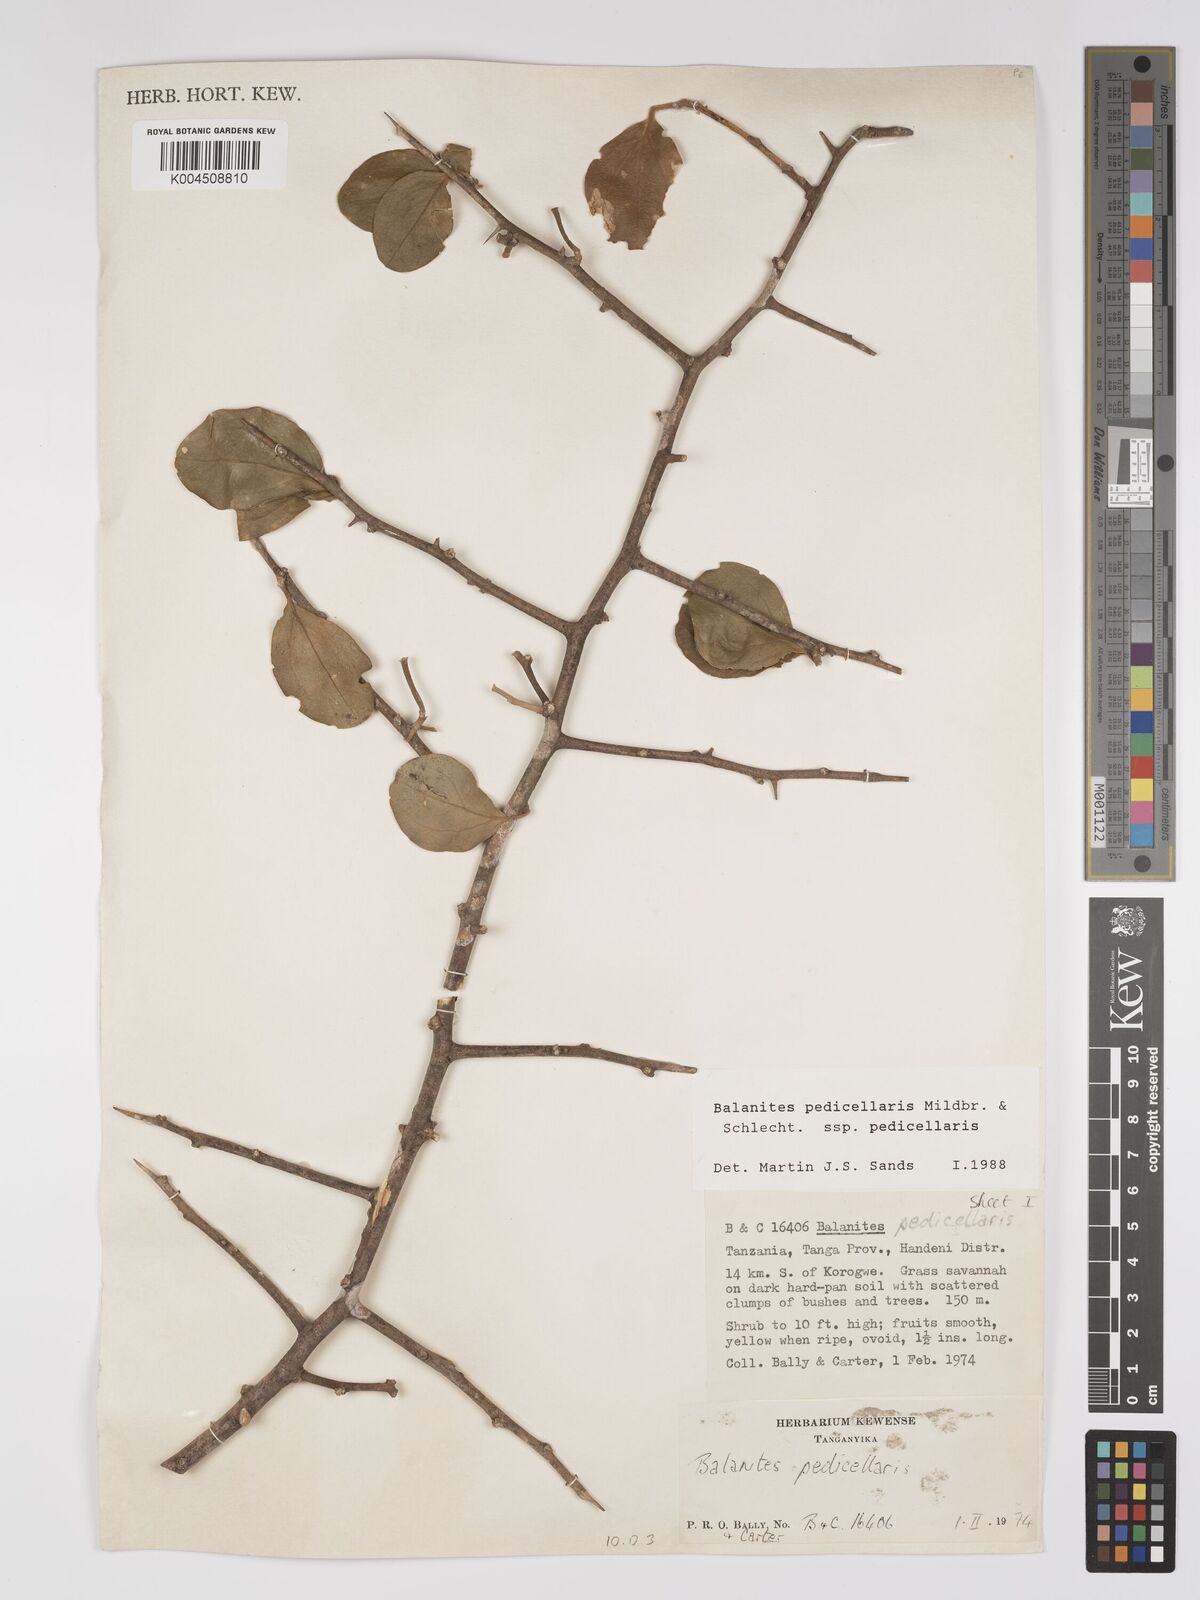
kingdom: Plantae
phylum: Tracheophyta
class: Magnoliopsida
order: Zygophyllales
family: Zygophyllaceae
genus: Balanites
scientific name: Balanites pedicellaris
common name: Small green-thorn
